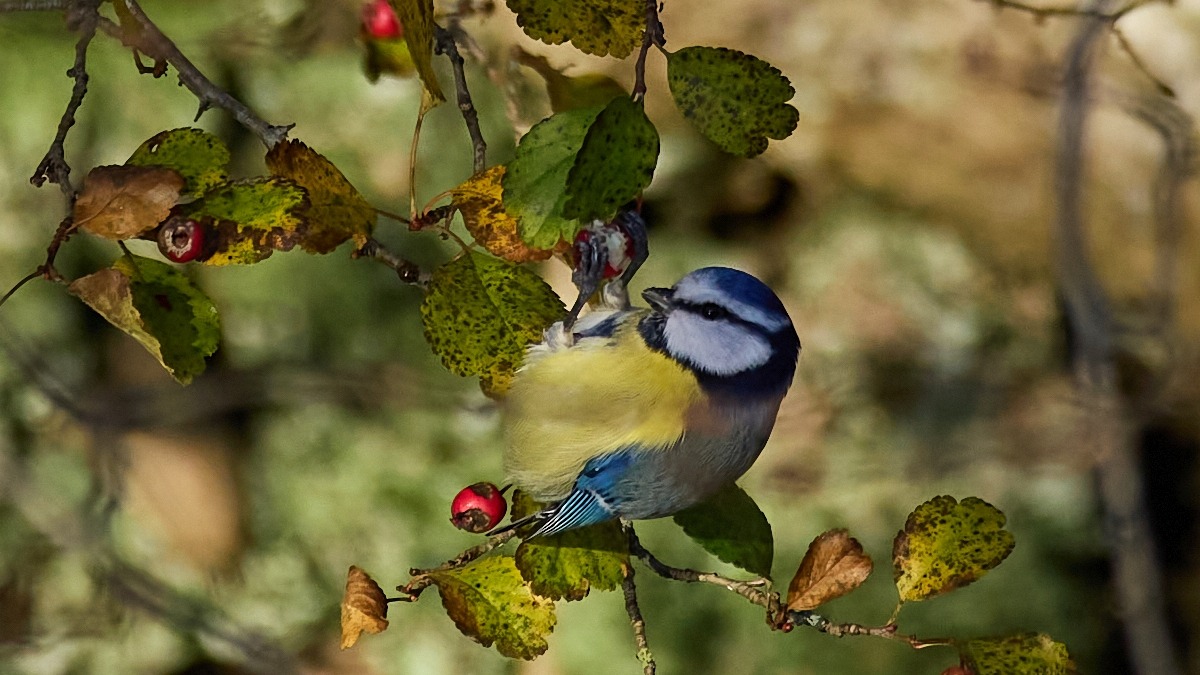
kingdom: Animalia
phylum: Chordata
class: Aves
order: Passeriformes
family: Paridae
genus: Cyanistes
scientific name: Cyanistes caeruleus
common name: Blåmejse
